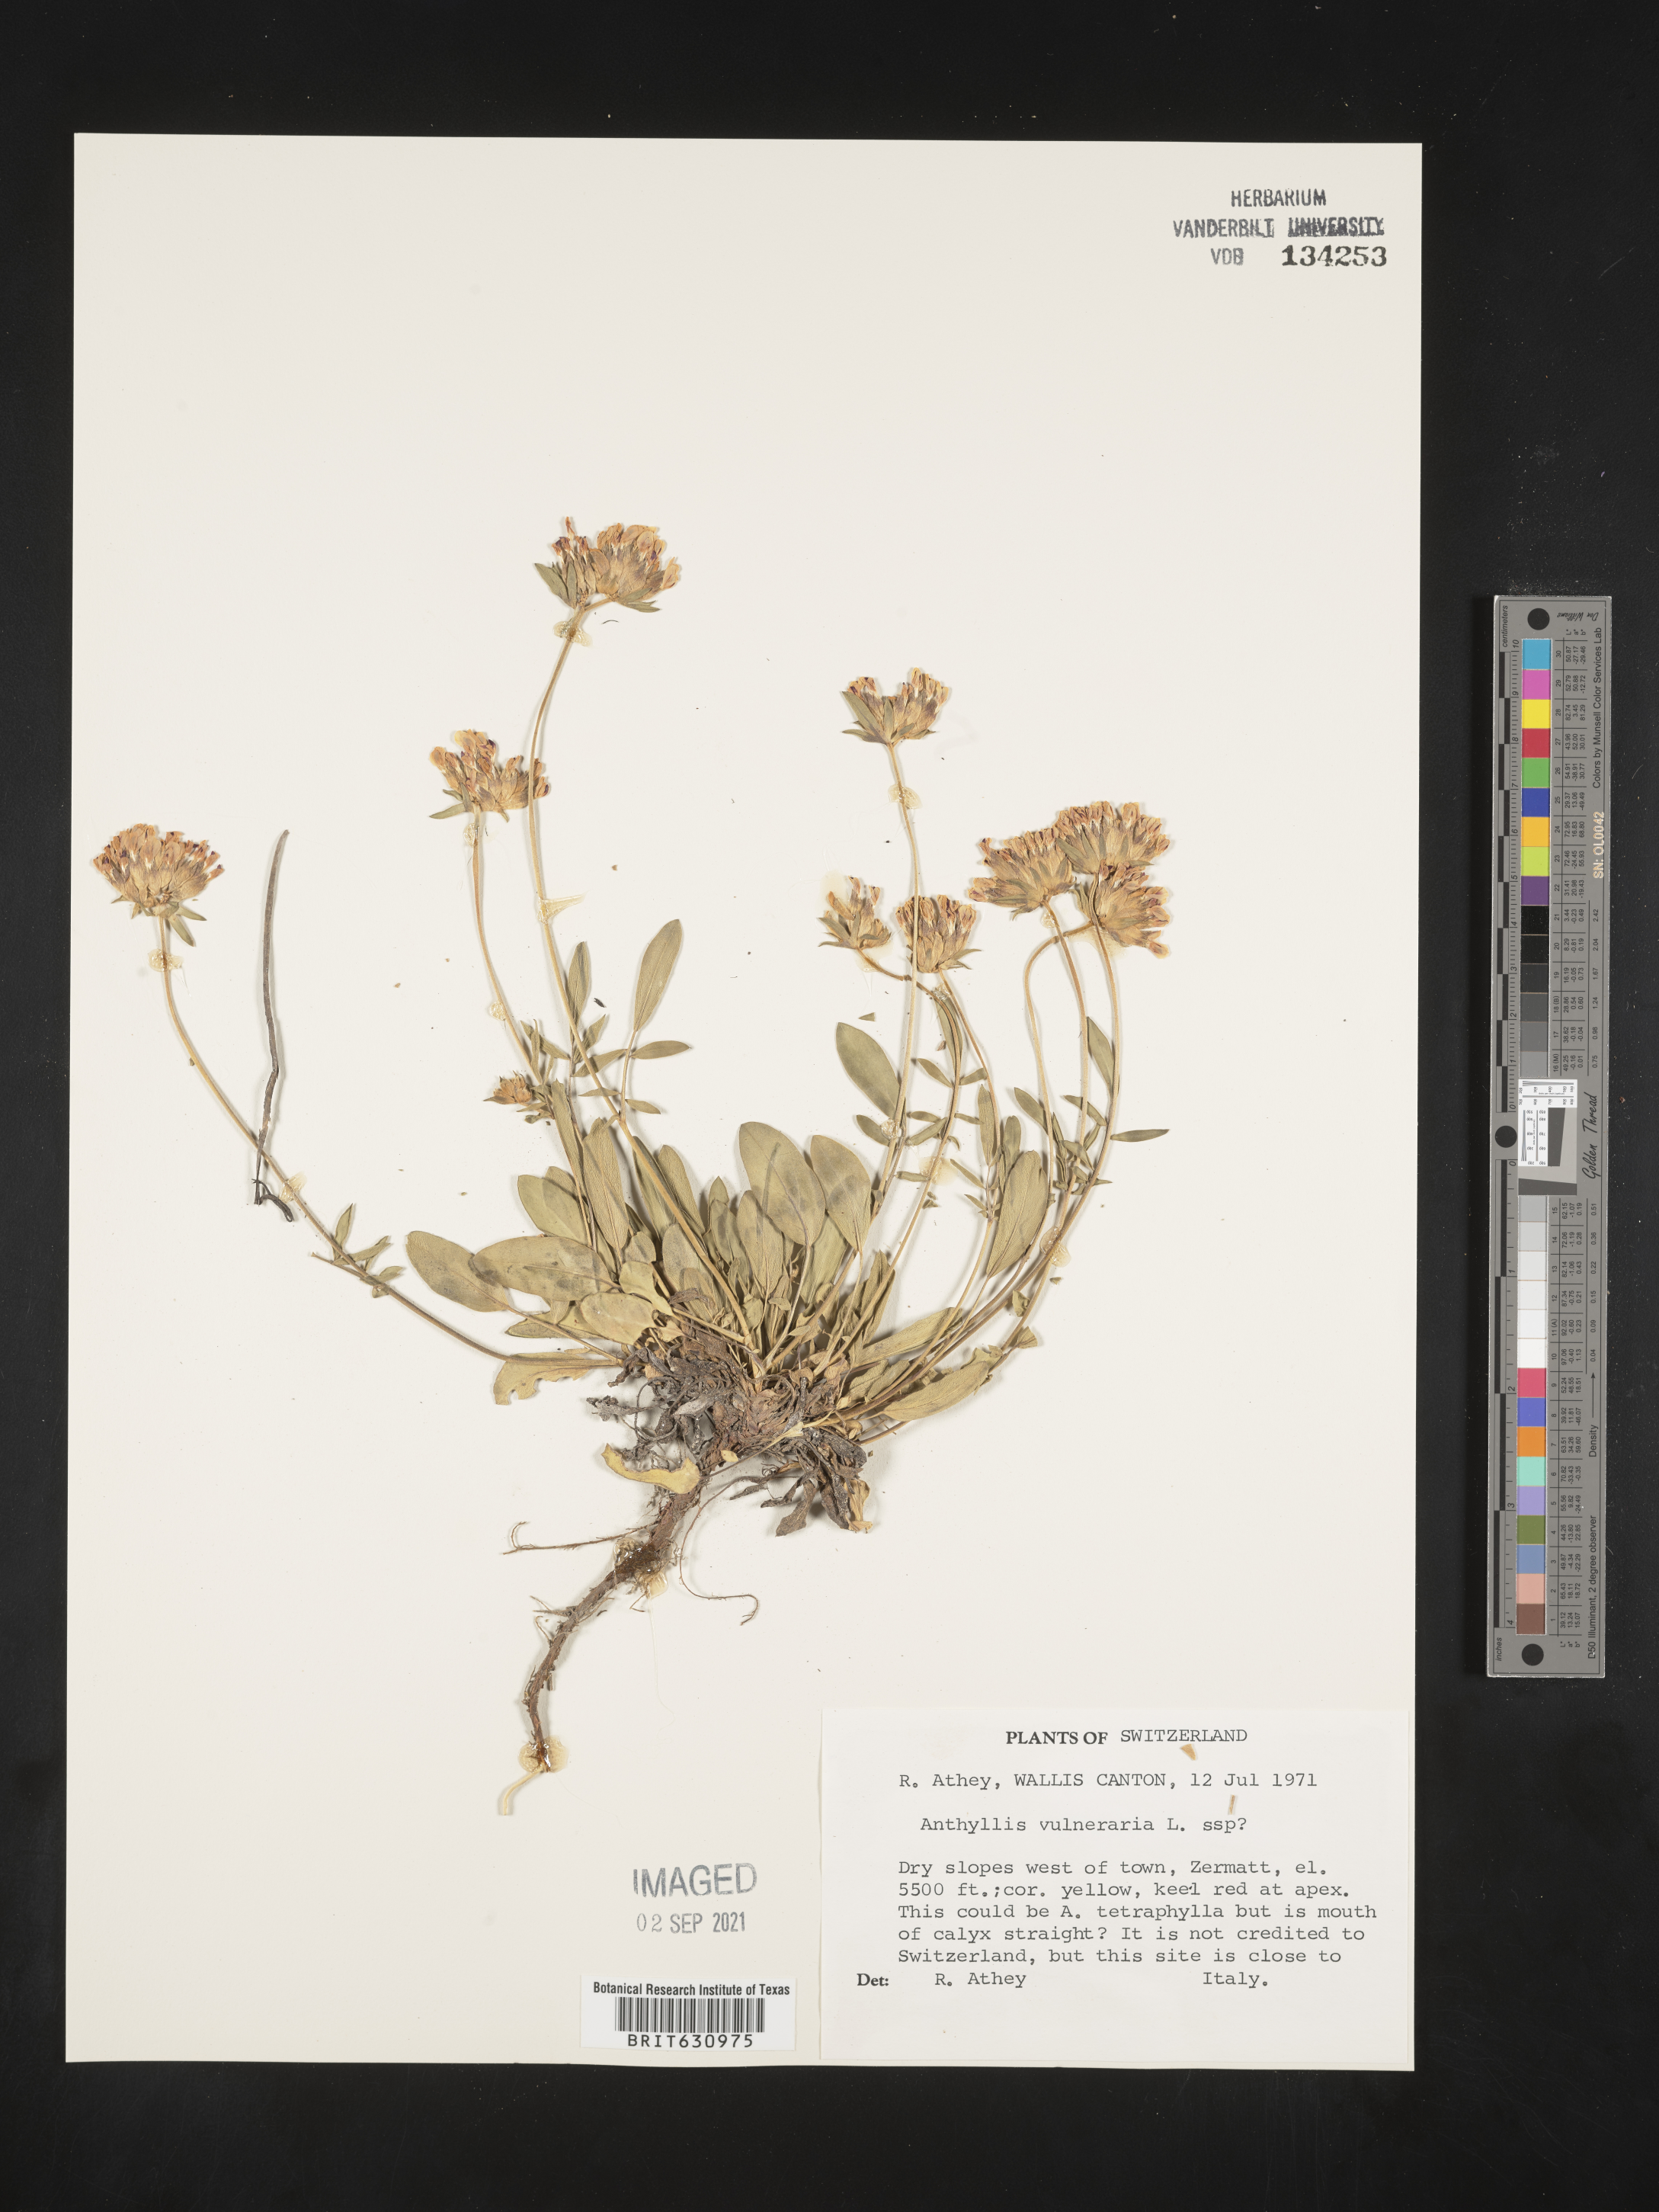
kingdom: Plantae
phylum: Tracheophyta
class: Magnoliopsida
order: Fabales
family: Fabaceae
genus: Anthyllis
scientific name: Anthyllis
